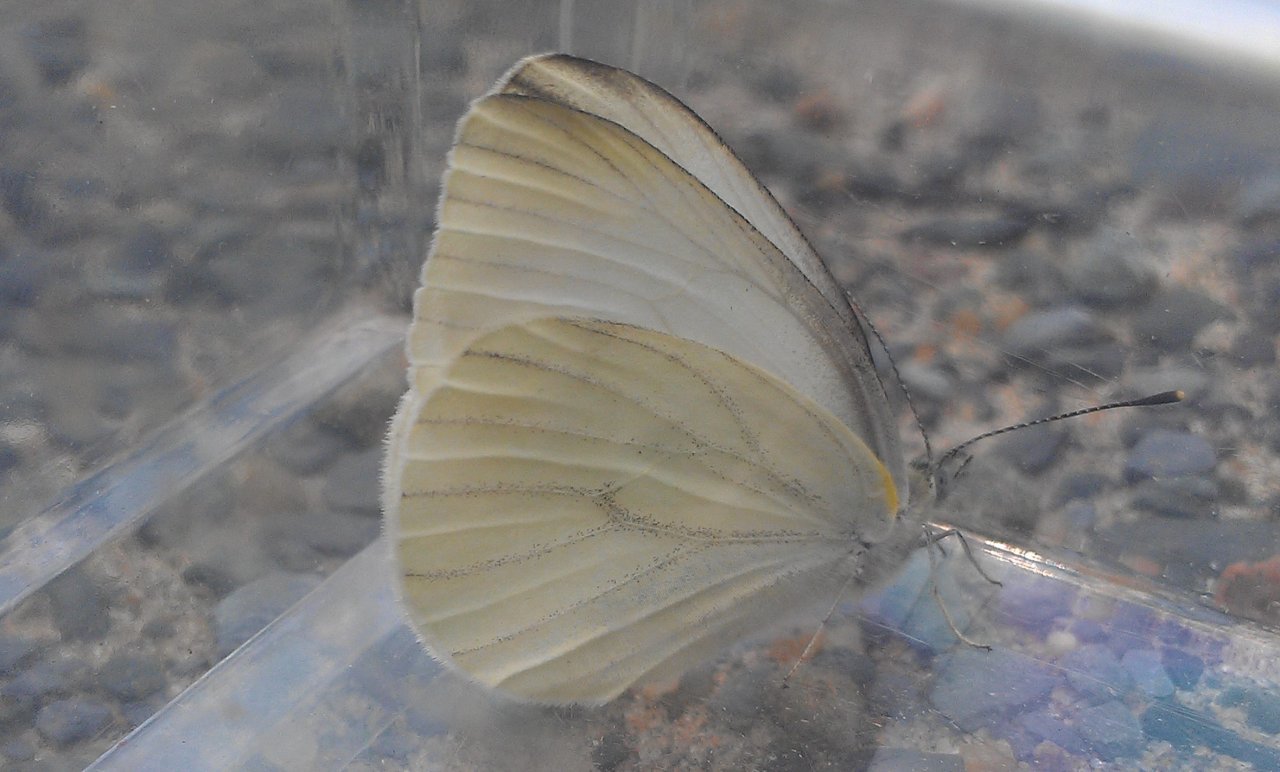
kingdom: Animalia
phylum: Arthropoda
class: Insecta
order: Lepidoptera
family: Pieridae
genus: Pieris
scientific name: Pieris oleracea
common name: Mustard White
